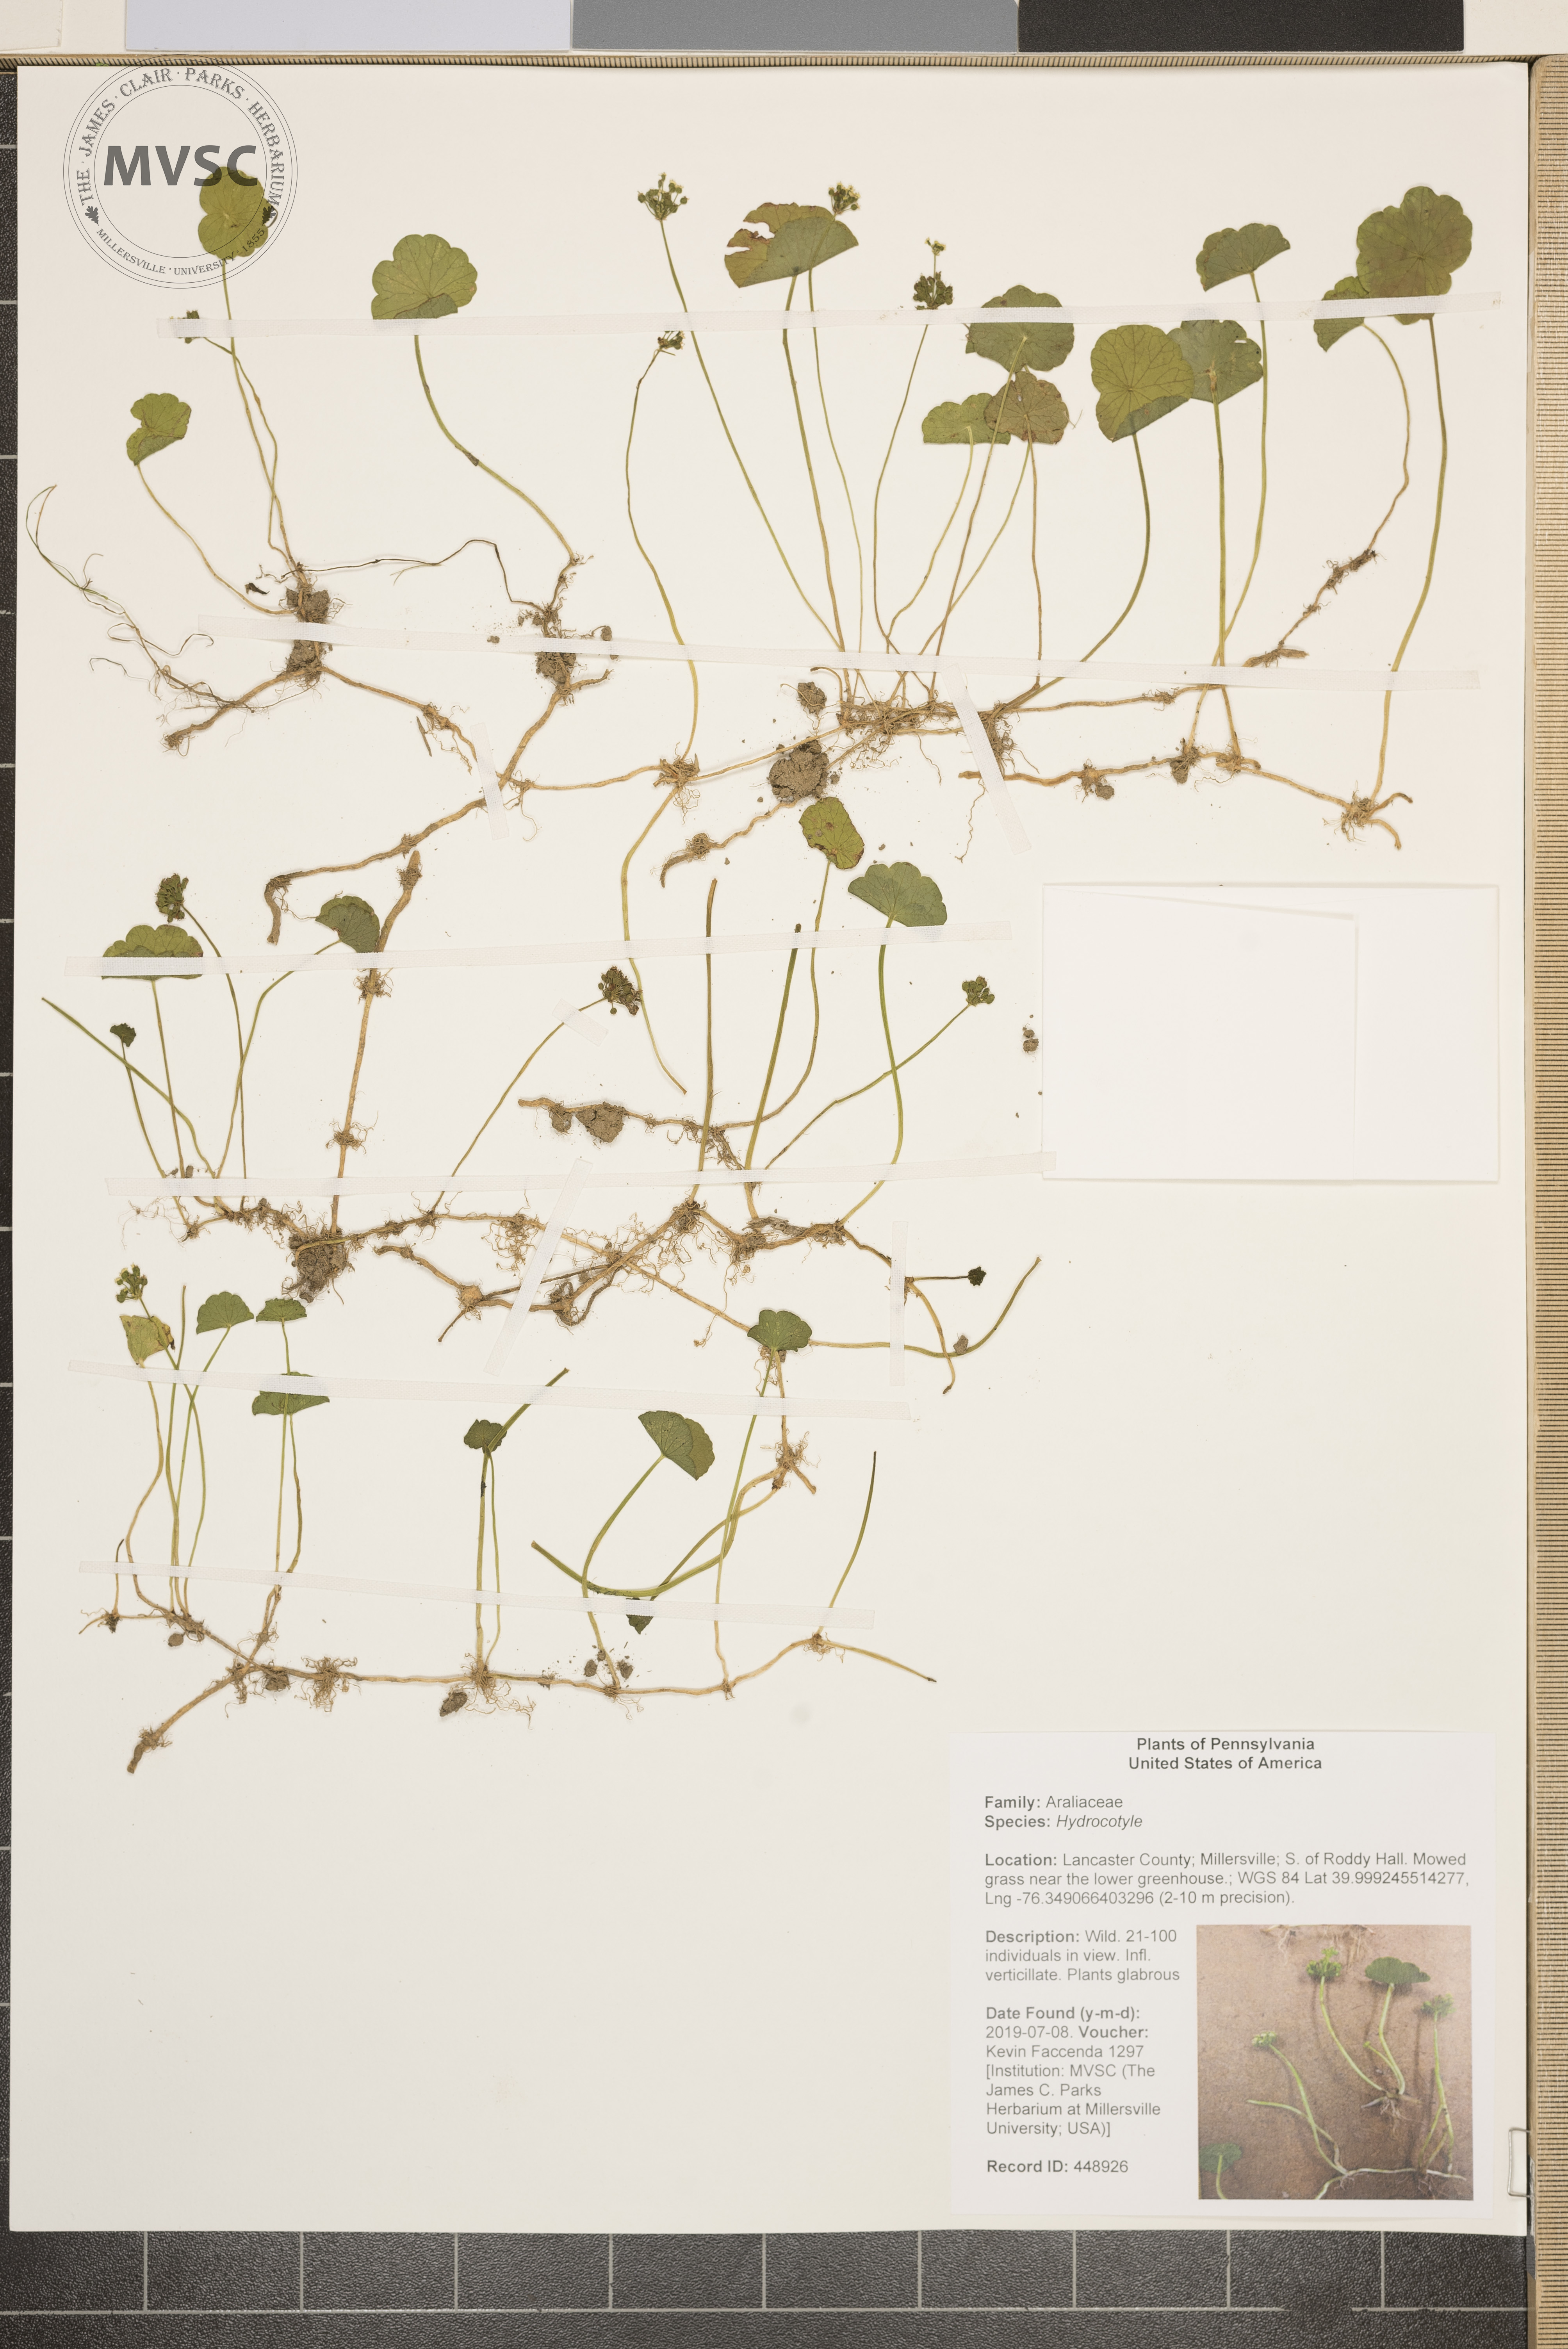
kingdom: Plantae
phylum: Tracheophyta
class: Magnoliopsida
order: Apiales
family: Araliaceae
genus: Hydrocotyle
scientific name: Hydrocotyle verticillata
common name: Whorled marshpennywort
